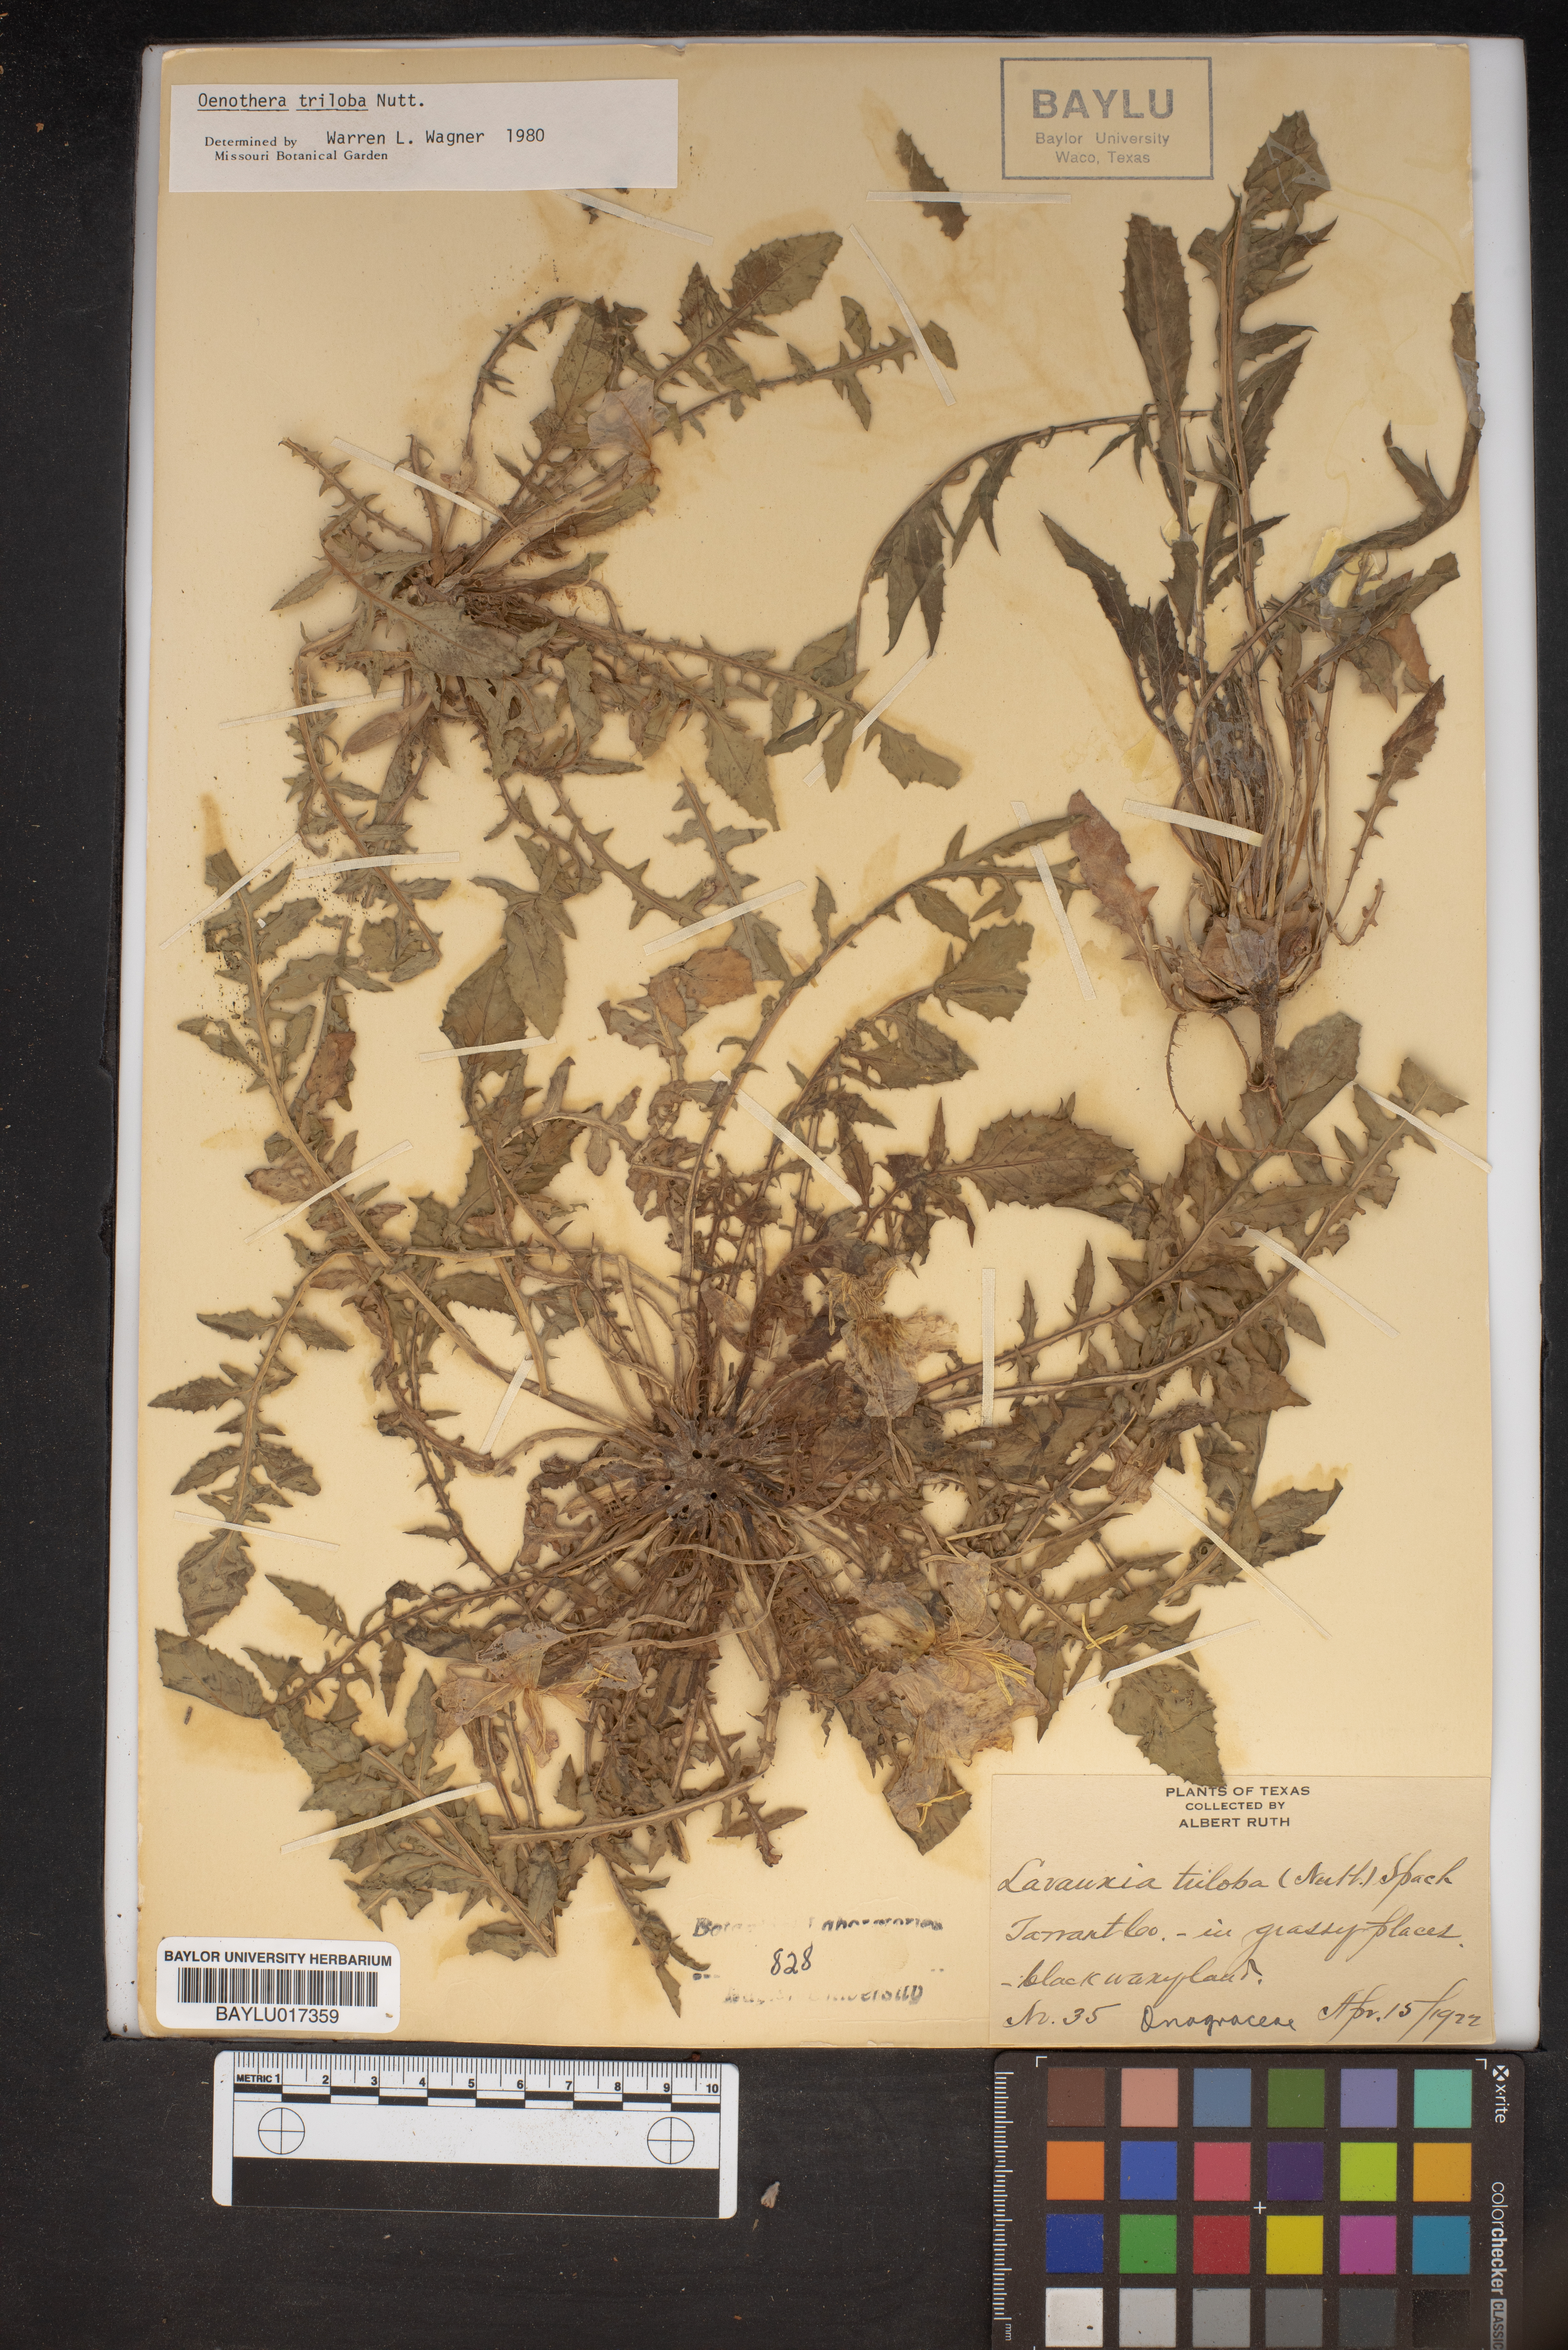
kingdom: Plantae
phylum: Tracheophyta
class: Magnoliopsida
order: Myrtales
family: Onagraceae
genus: Oenothera
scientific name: Oenothera triloba
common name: Sessile evening-primrose
